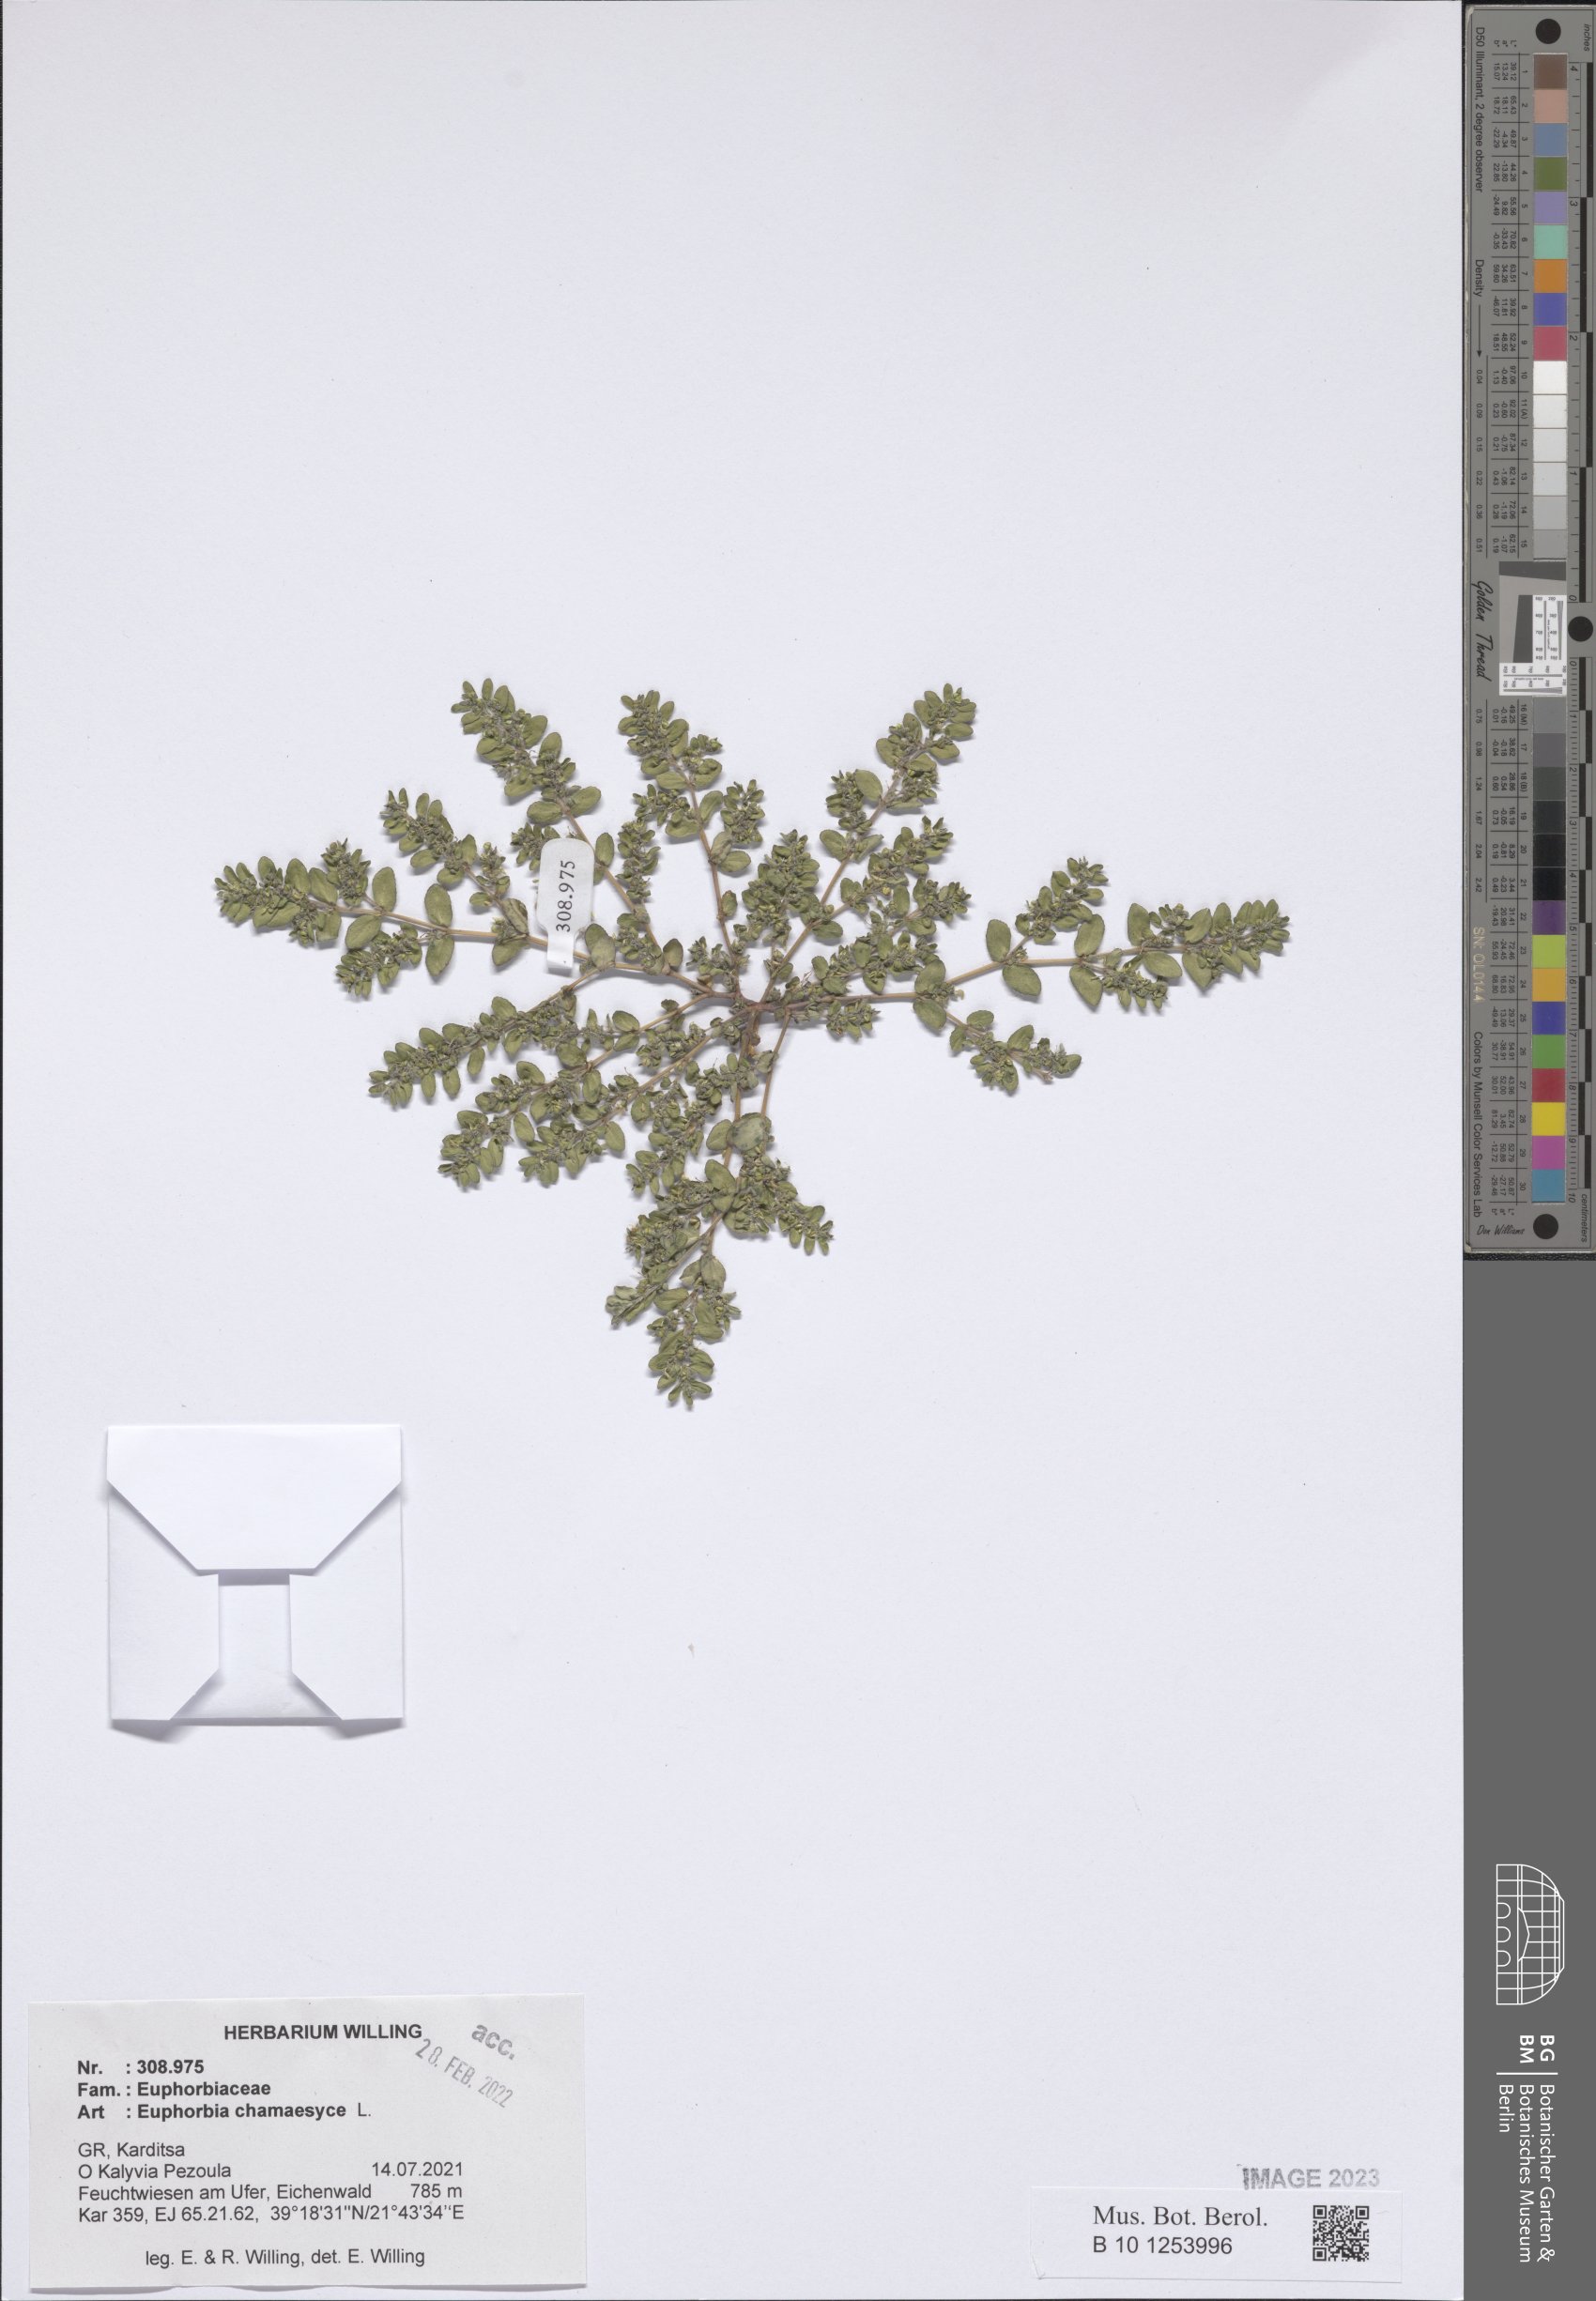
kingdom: Plantae
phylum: Tracheophyta
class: Magnoliopsida
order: Malpighiales
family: Euphorbiaceae
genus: Euphorbia
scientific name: Euphorbia chamaesyce
